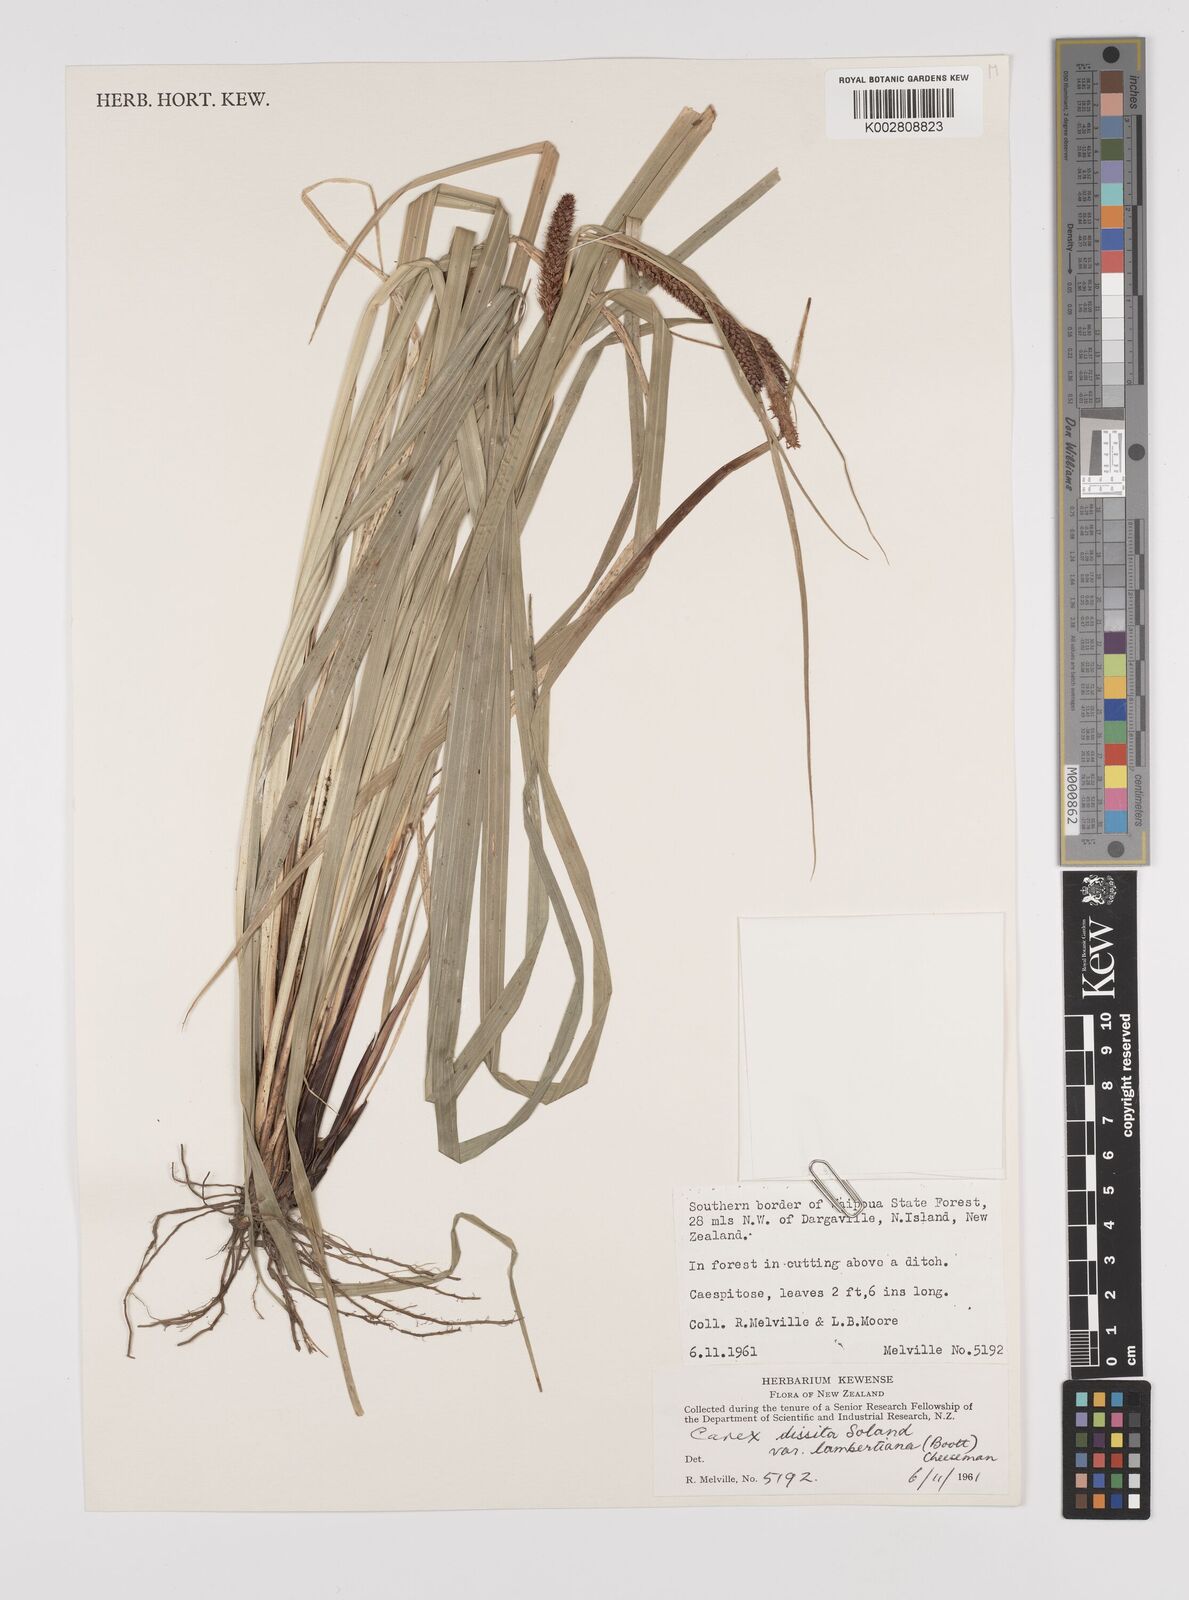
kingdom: Plantae
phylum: Tracheophyta
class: Liliopsida
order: Poales
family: Cyperaceae
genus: Carex
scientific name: Carex dissita
